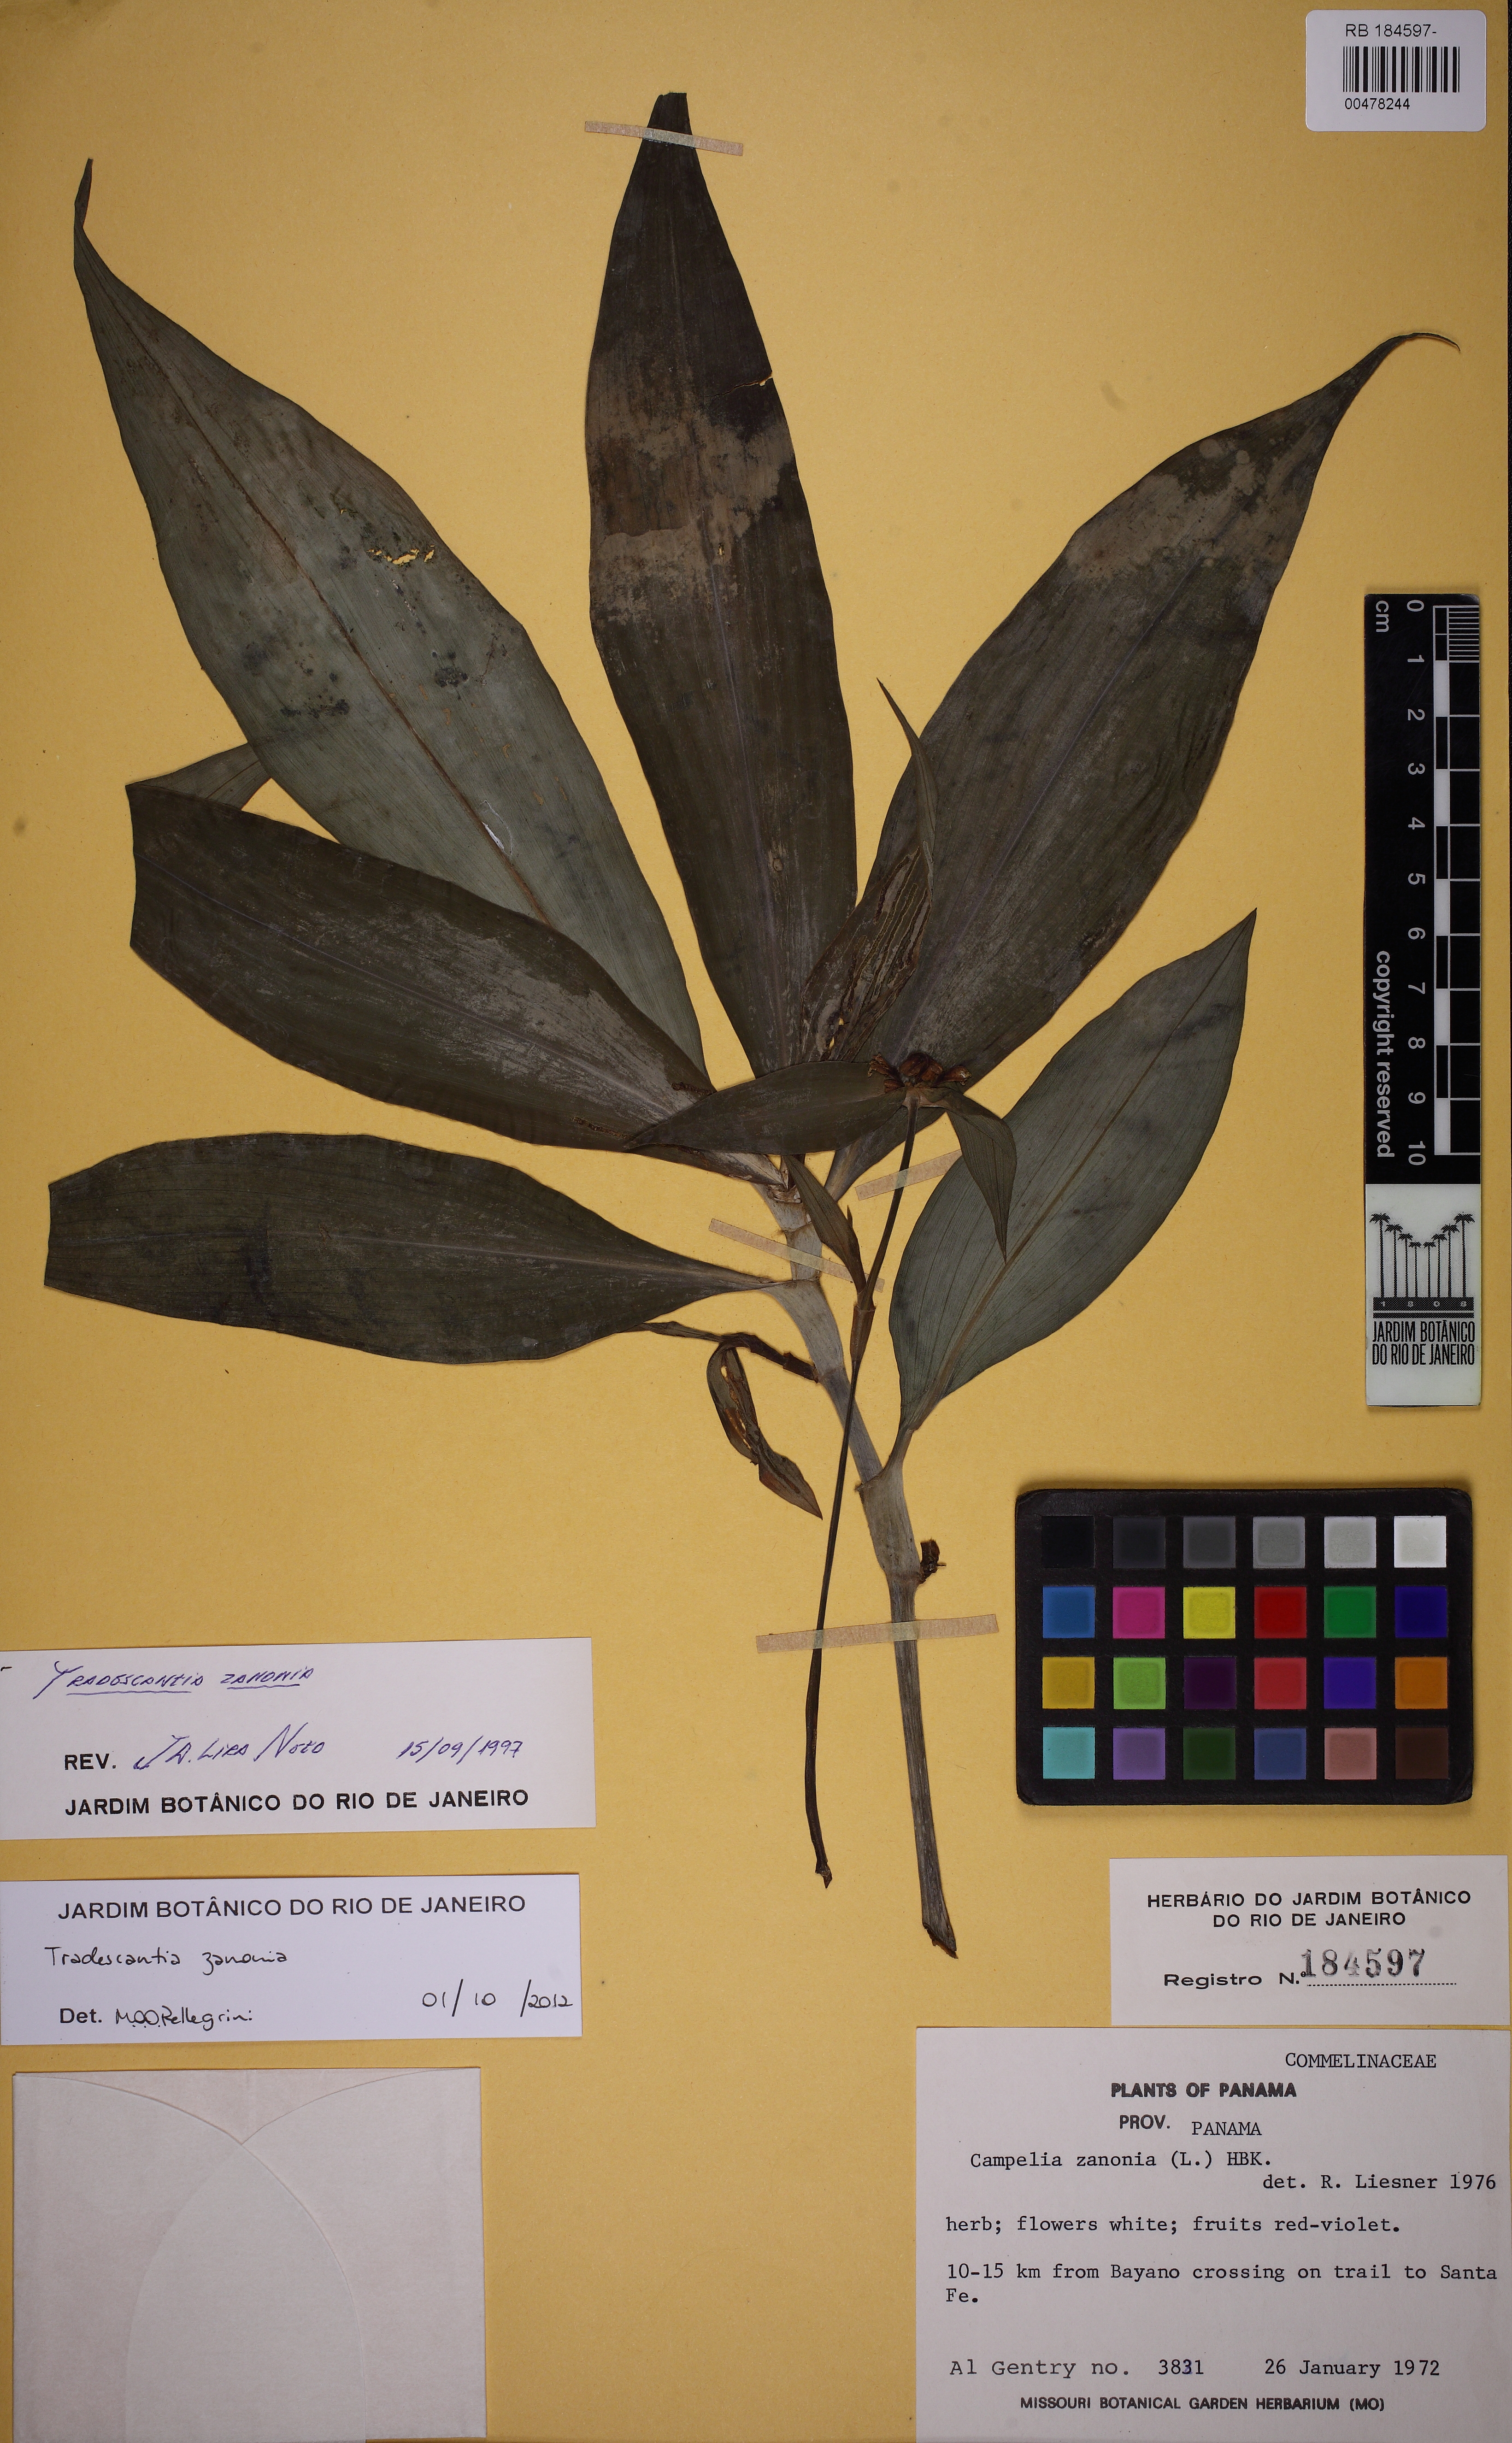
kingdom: Plantae
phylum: Tracheophyta
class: Liliopsida
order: Commelinales
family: Commelinaceae
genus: Tradescantia
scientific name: Tradescantia zanonia
